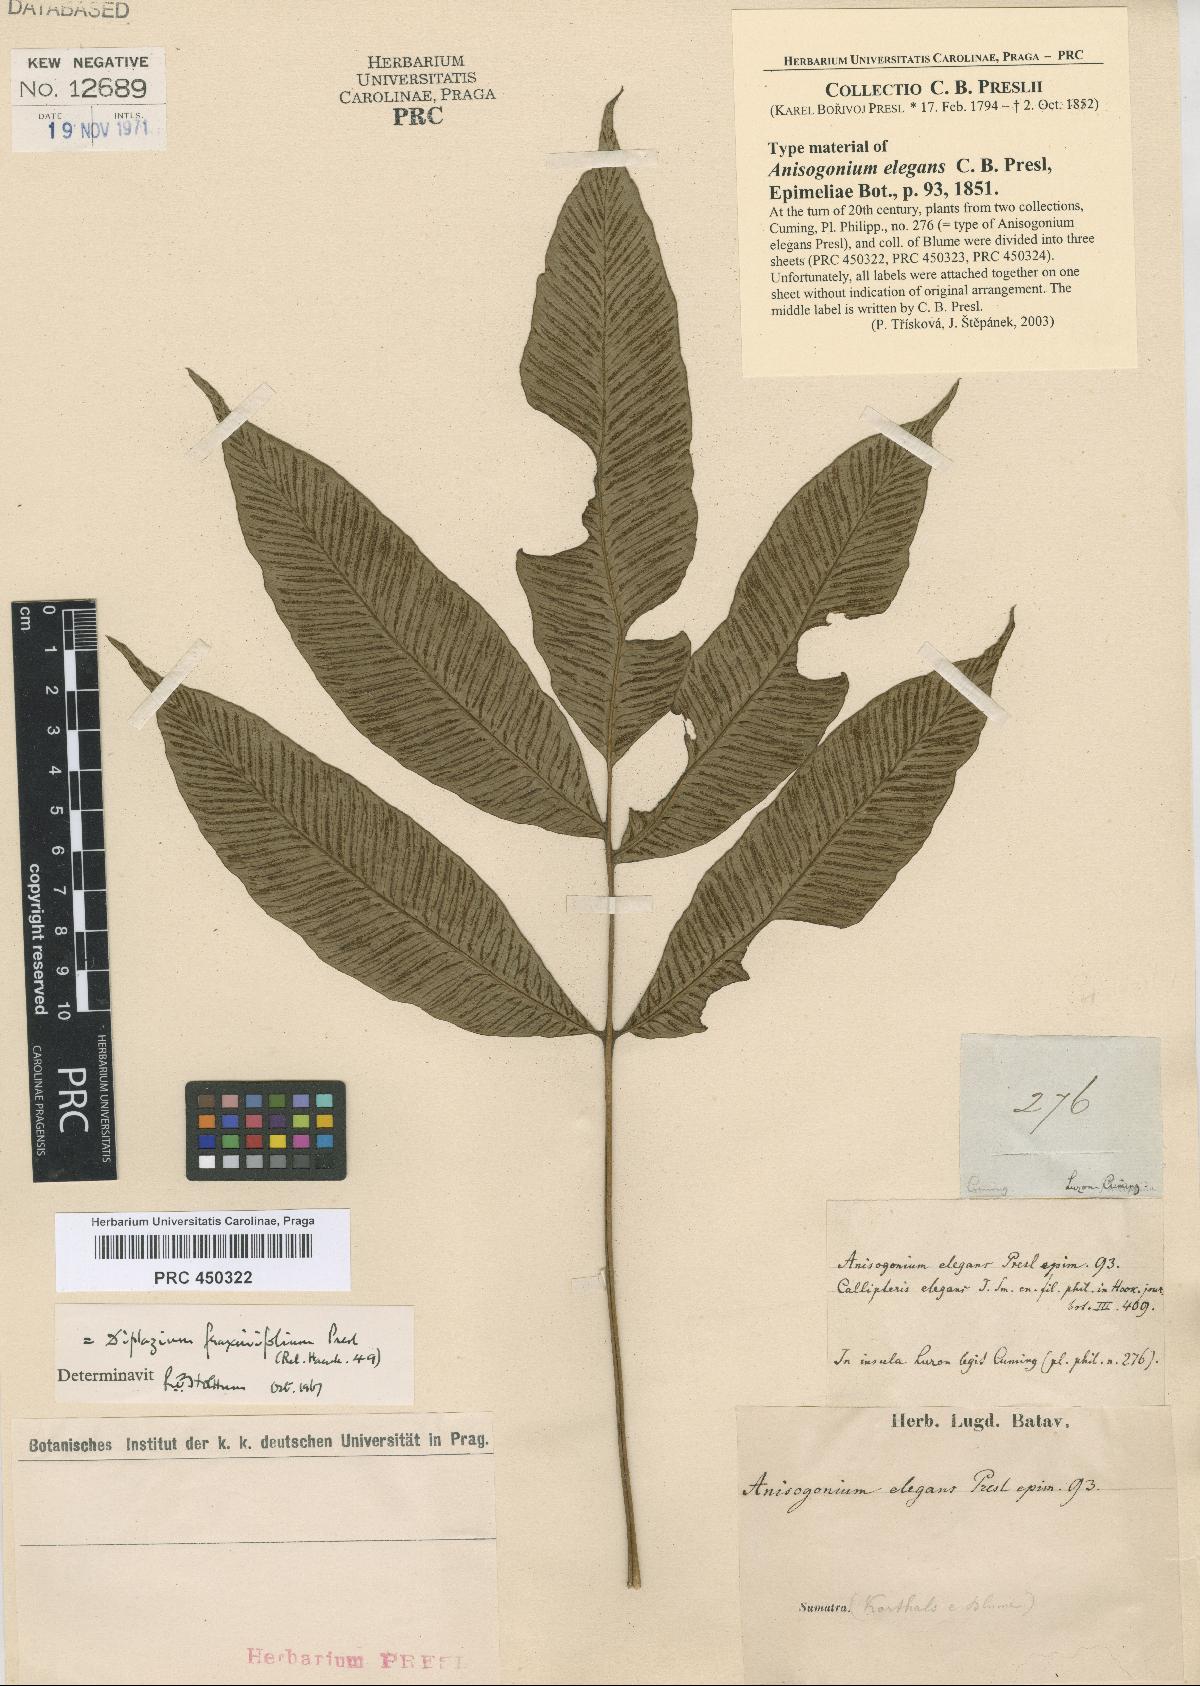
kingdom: Plantae
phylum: Tracheophyta
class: Polypodiopsida
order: Polypodiales
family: Athyriaceae
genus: Diplazium
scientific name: Diplazium fraxinifolium
